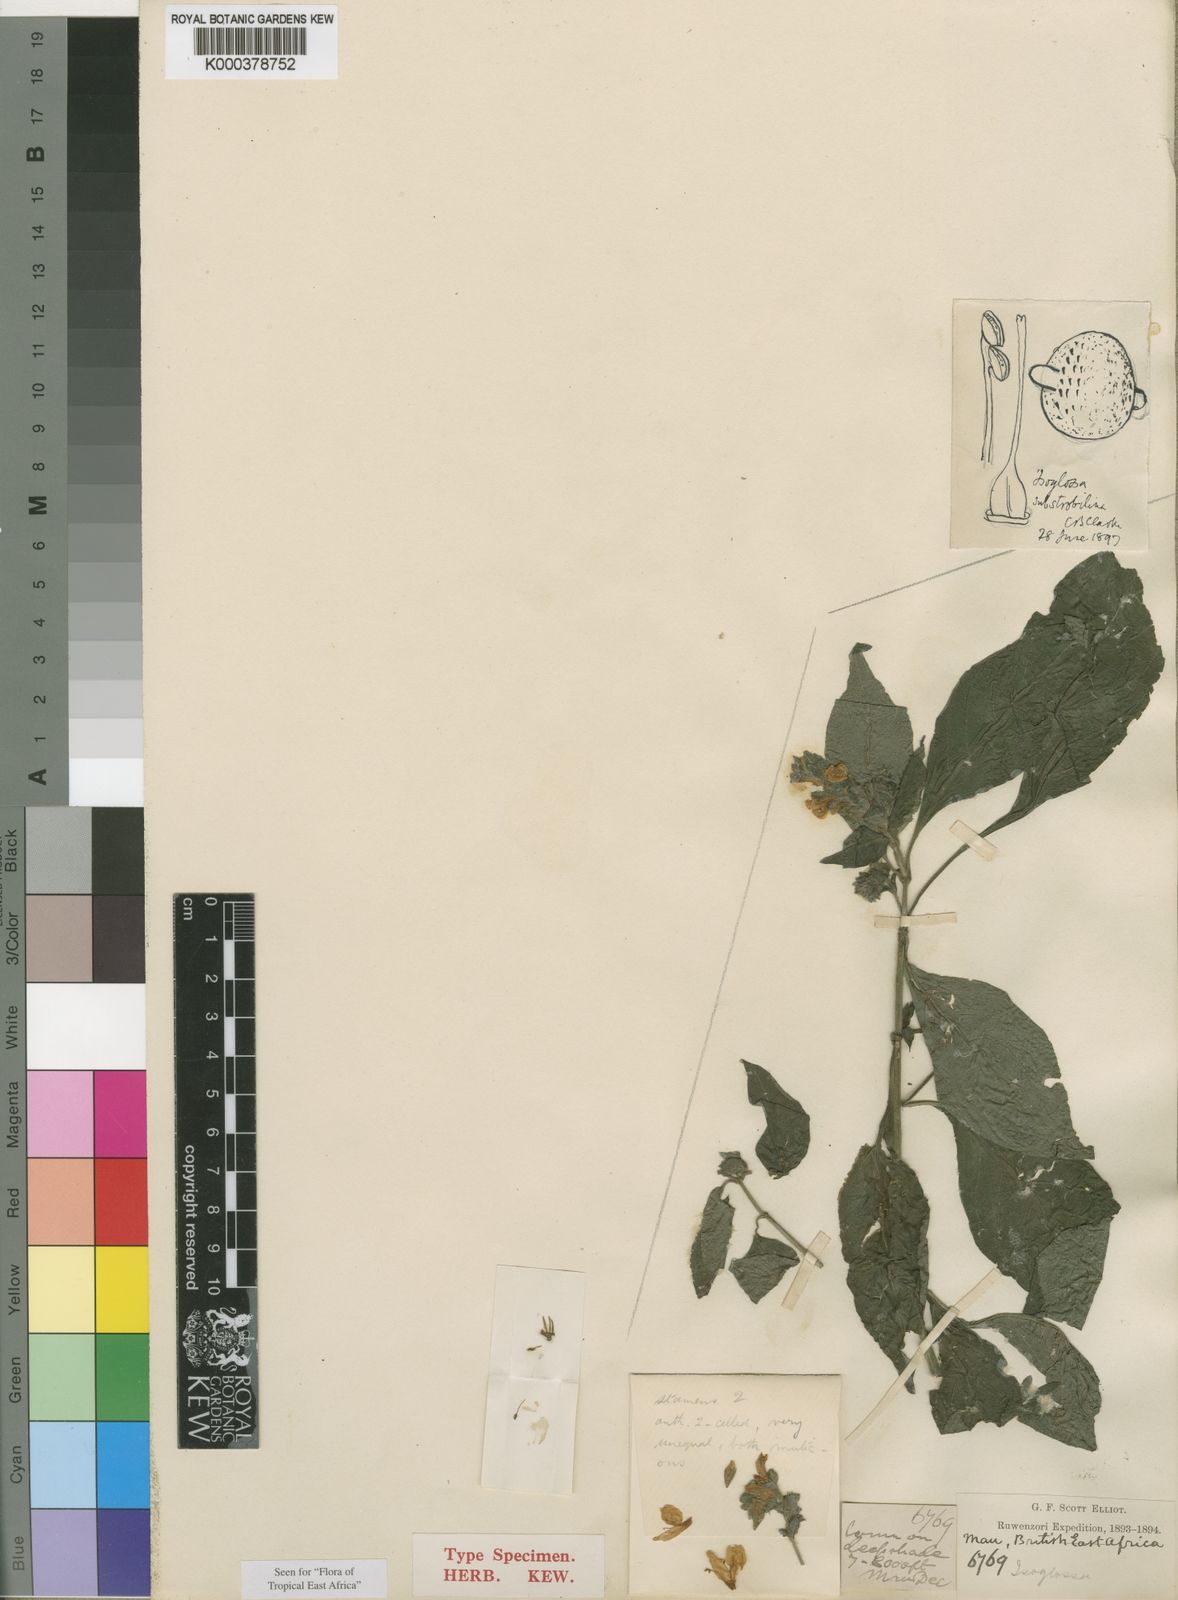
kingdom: Plantae
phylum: Tracheophyta
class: Magnoliopsida
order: Lamiales
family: Acanthaceae
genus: Isoglossa
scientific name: Isoglossa substrobilina
